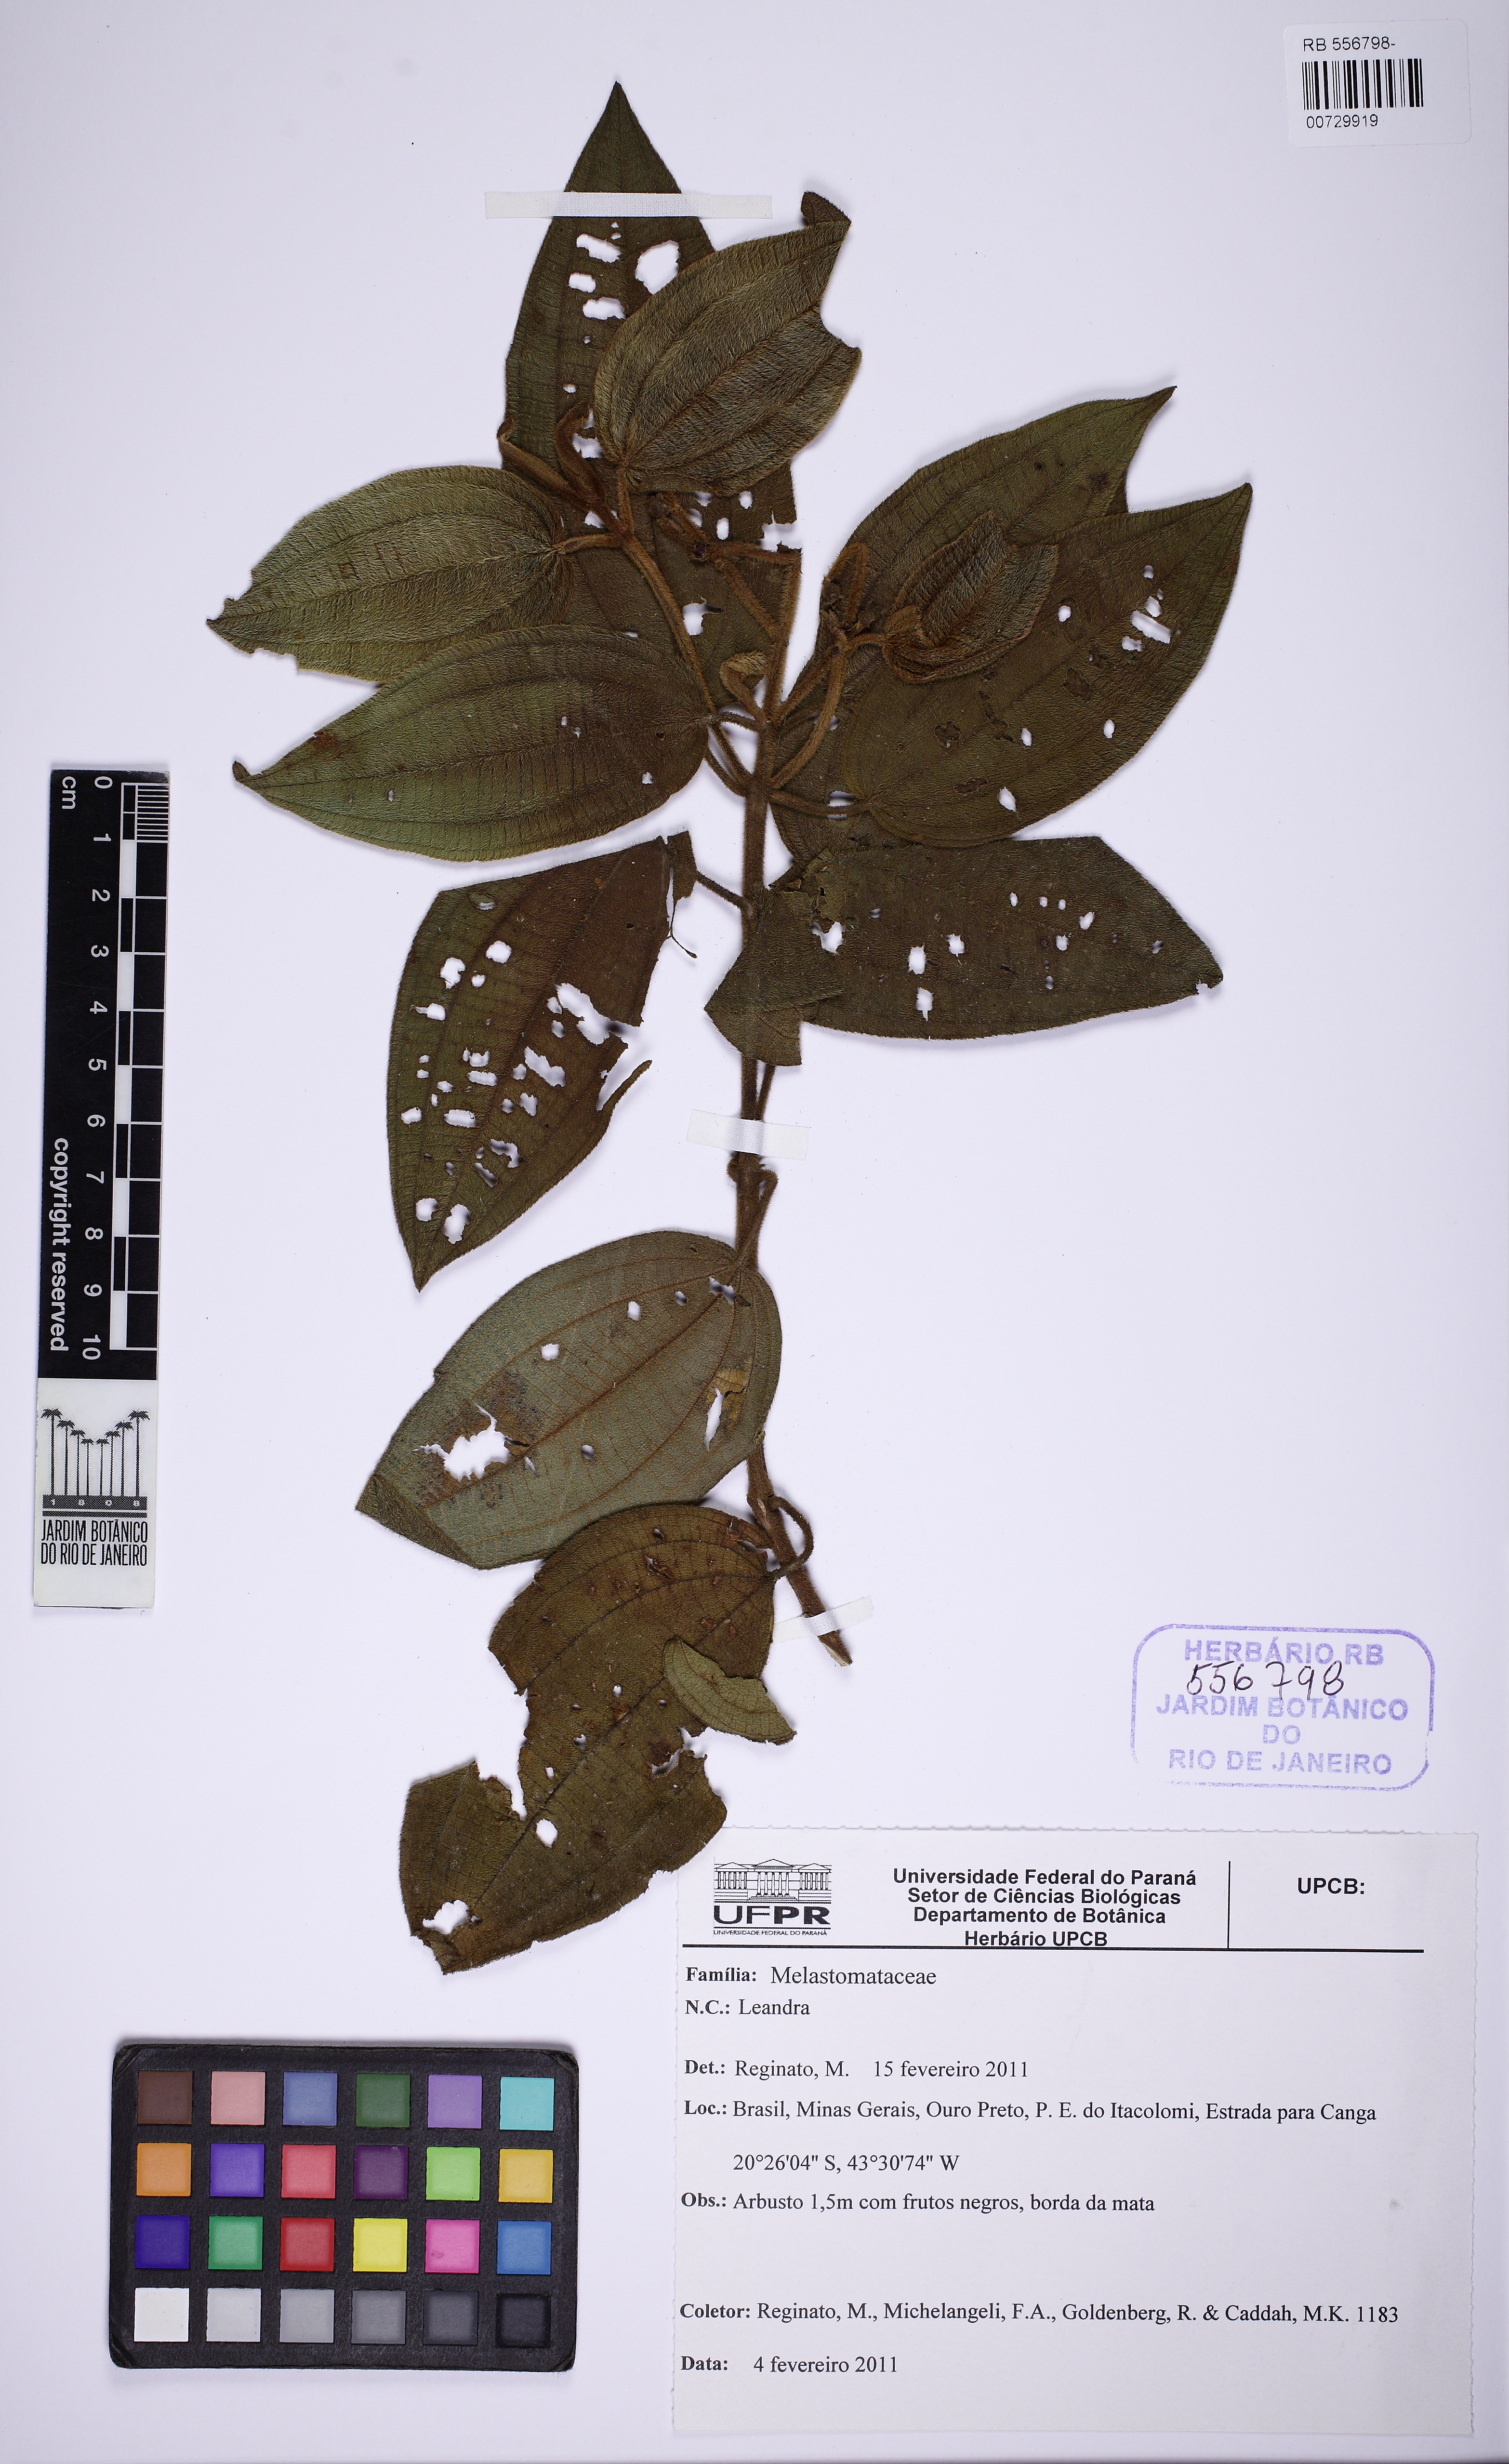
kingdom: Plantae
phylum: Tracheophyta
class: Magnoliopsida
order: Myrtales
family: Melastomataceae
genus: Miconia
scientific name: Miconia
